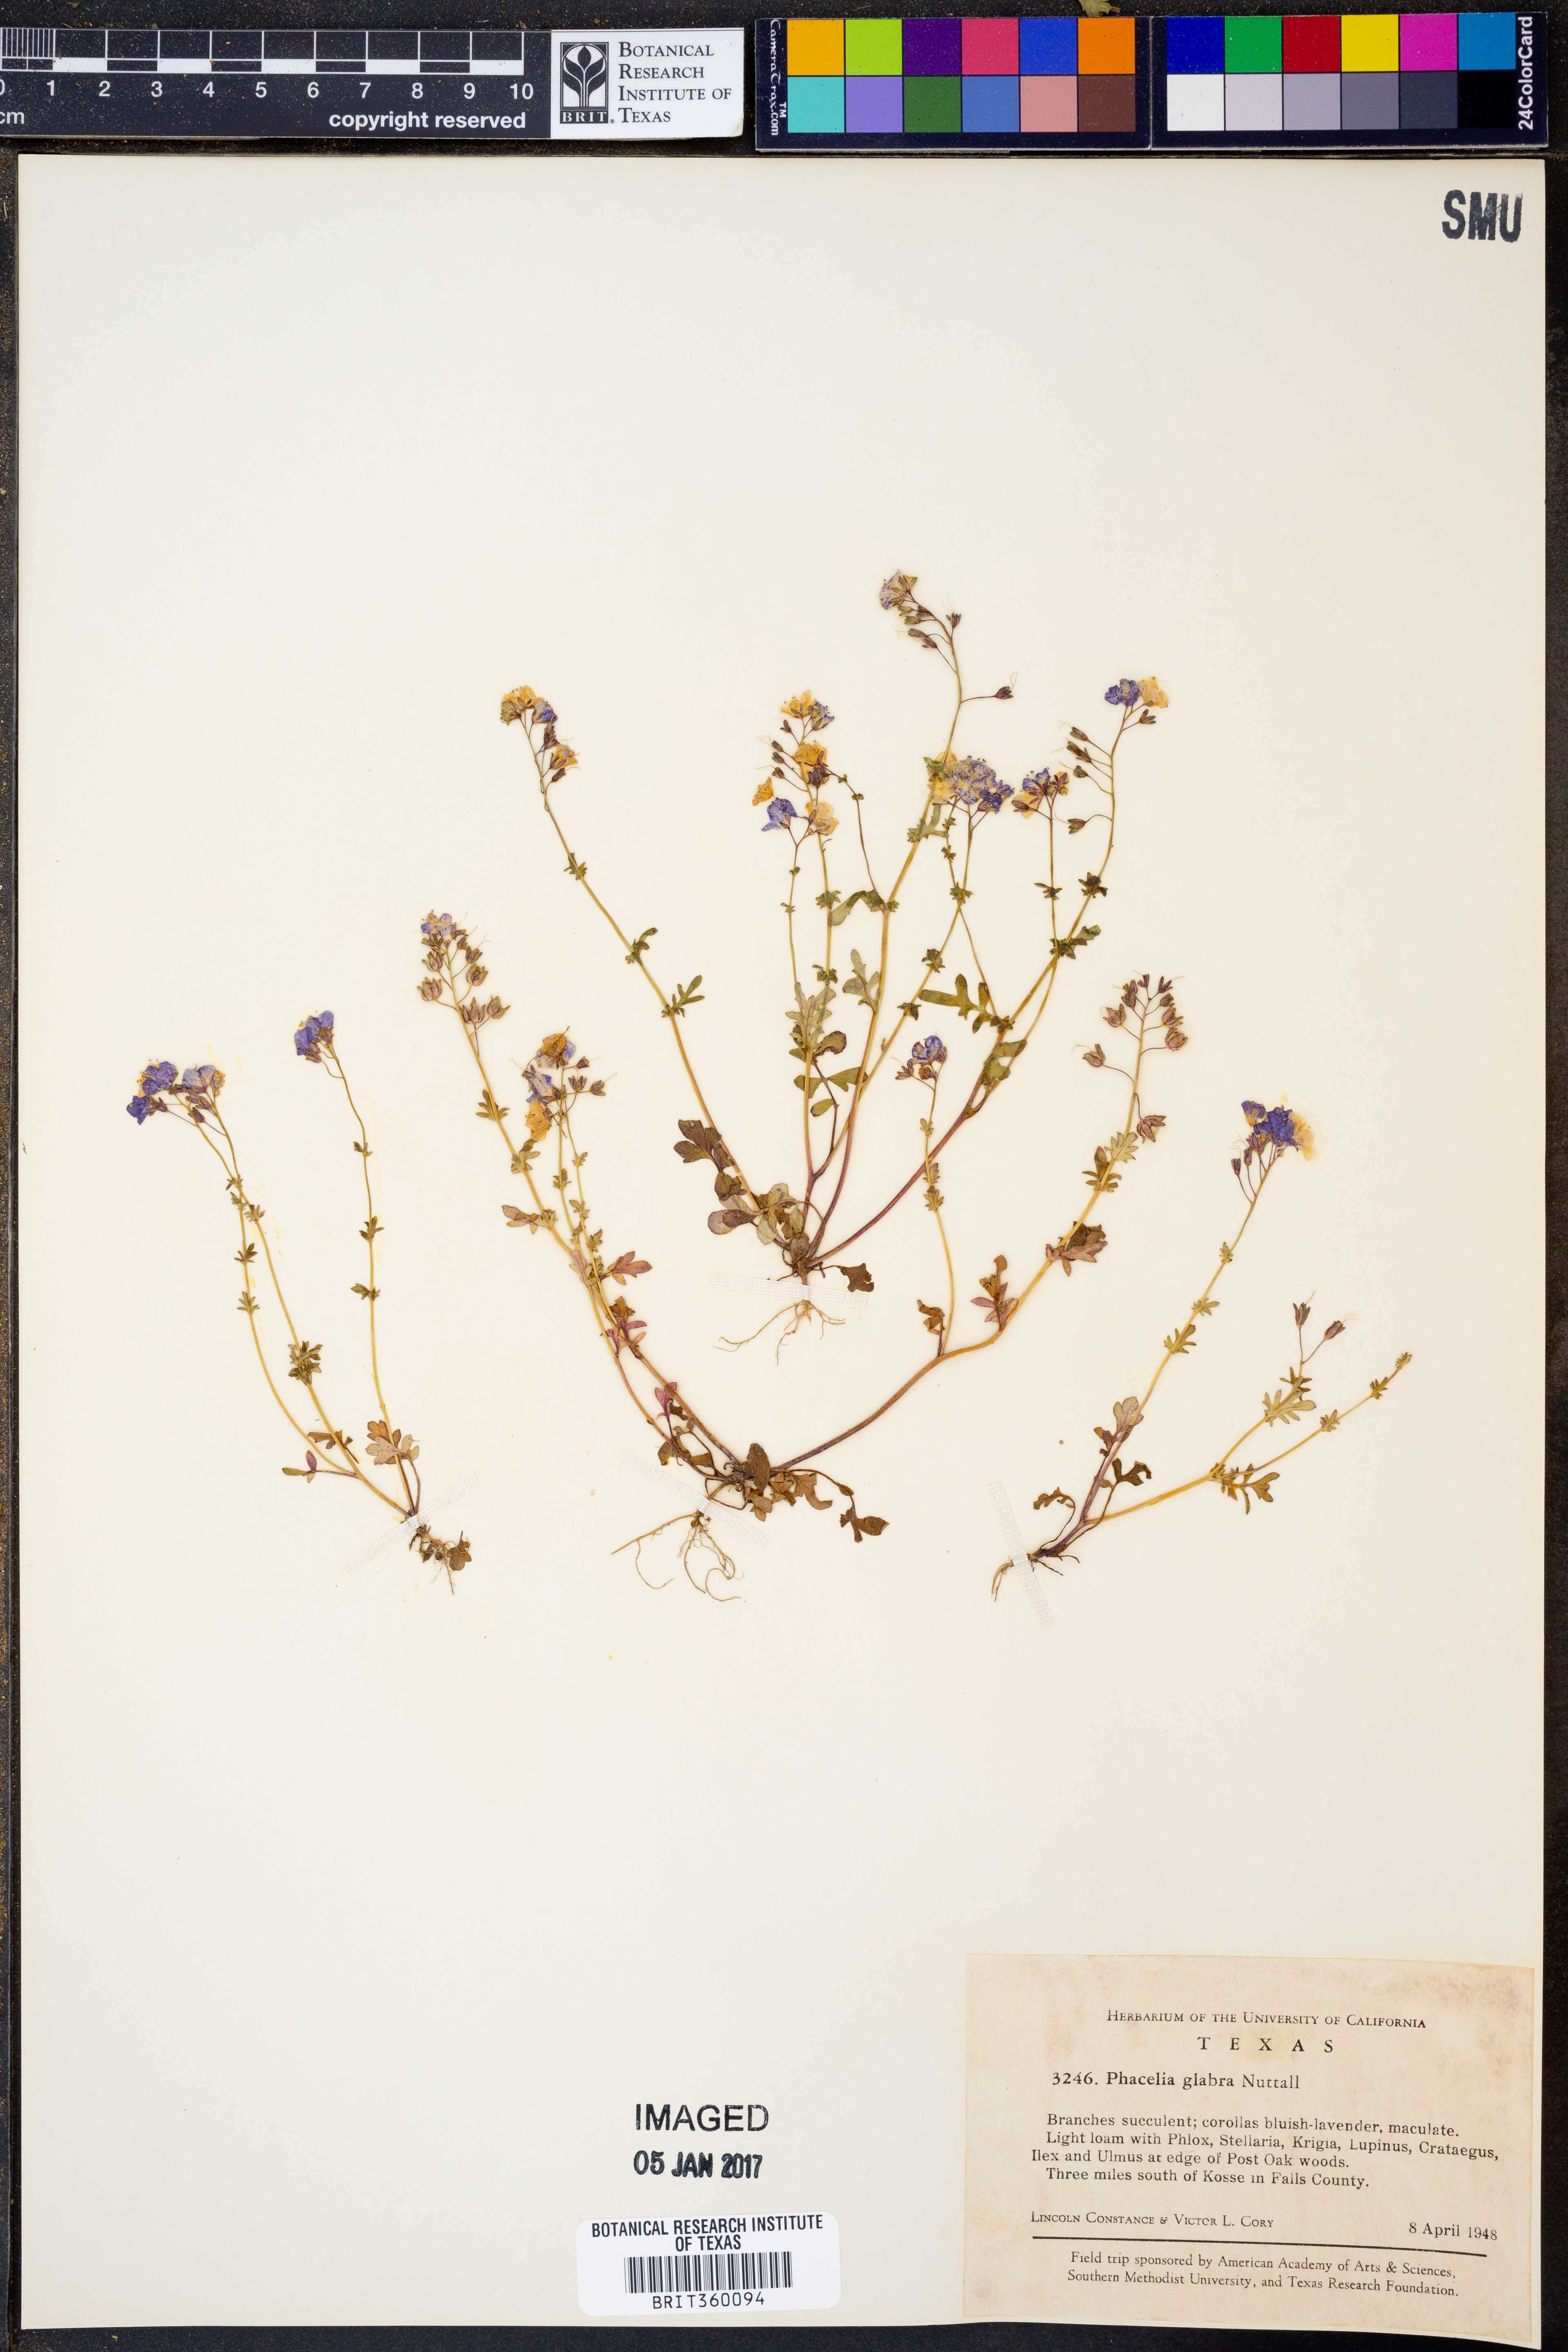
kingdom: Plantae
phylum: Tracheophyta
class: Magnoliopsida
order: Boraginales
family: Hydrophyllaceae
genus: Phacelia
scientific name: Phacelia glabra
